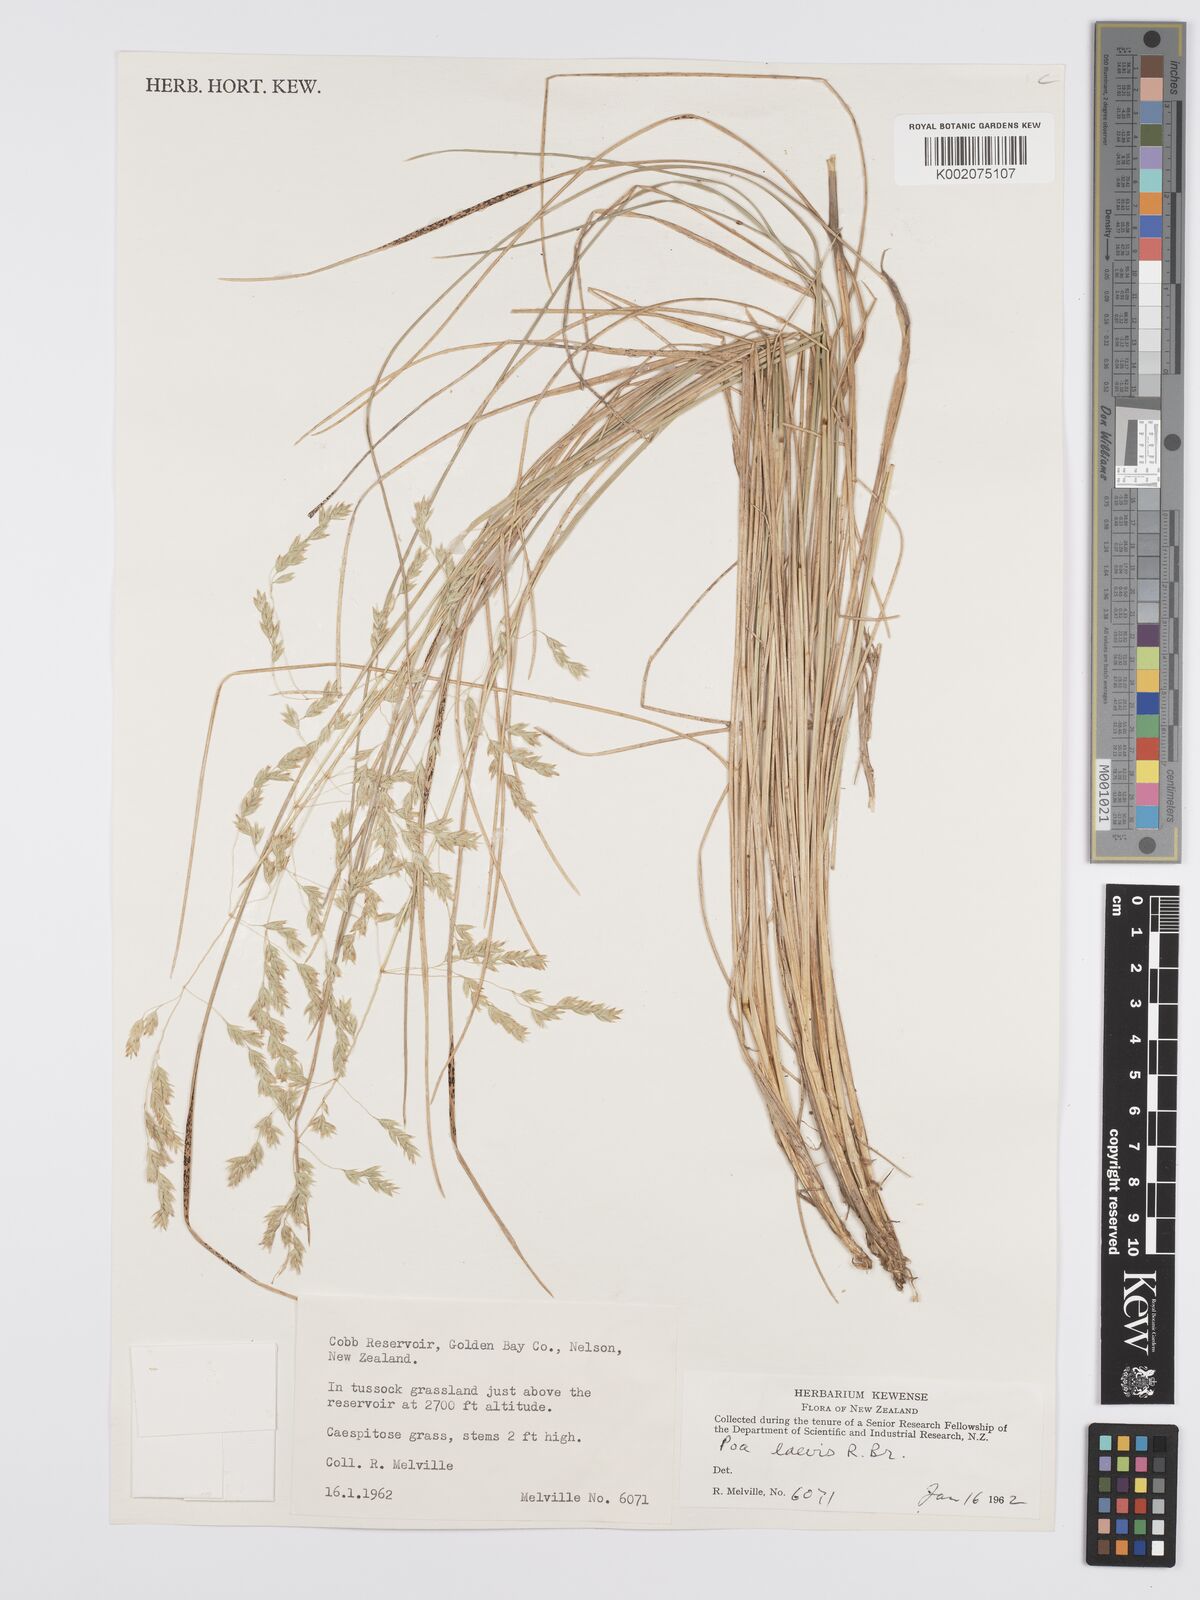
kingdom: Plantae
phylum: Tracheophyta
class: Liliopsida
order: Poales
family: Poaceae
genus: Poa
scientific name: Poa poiformis
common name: Tussock poa
